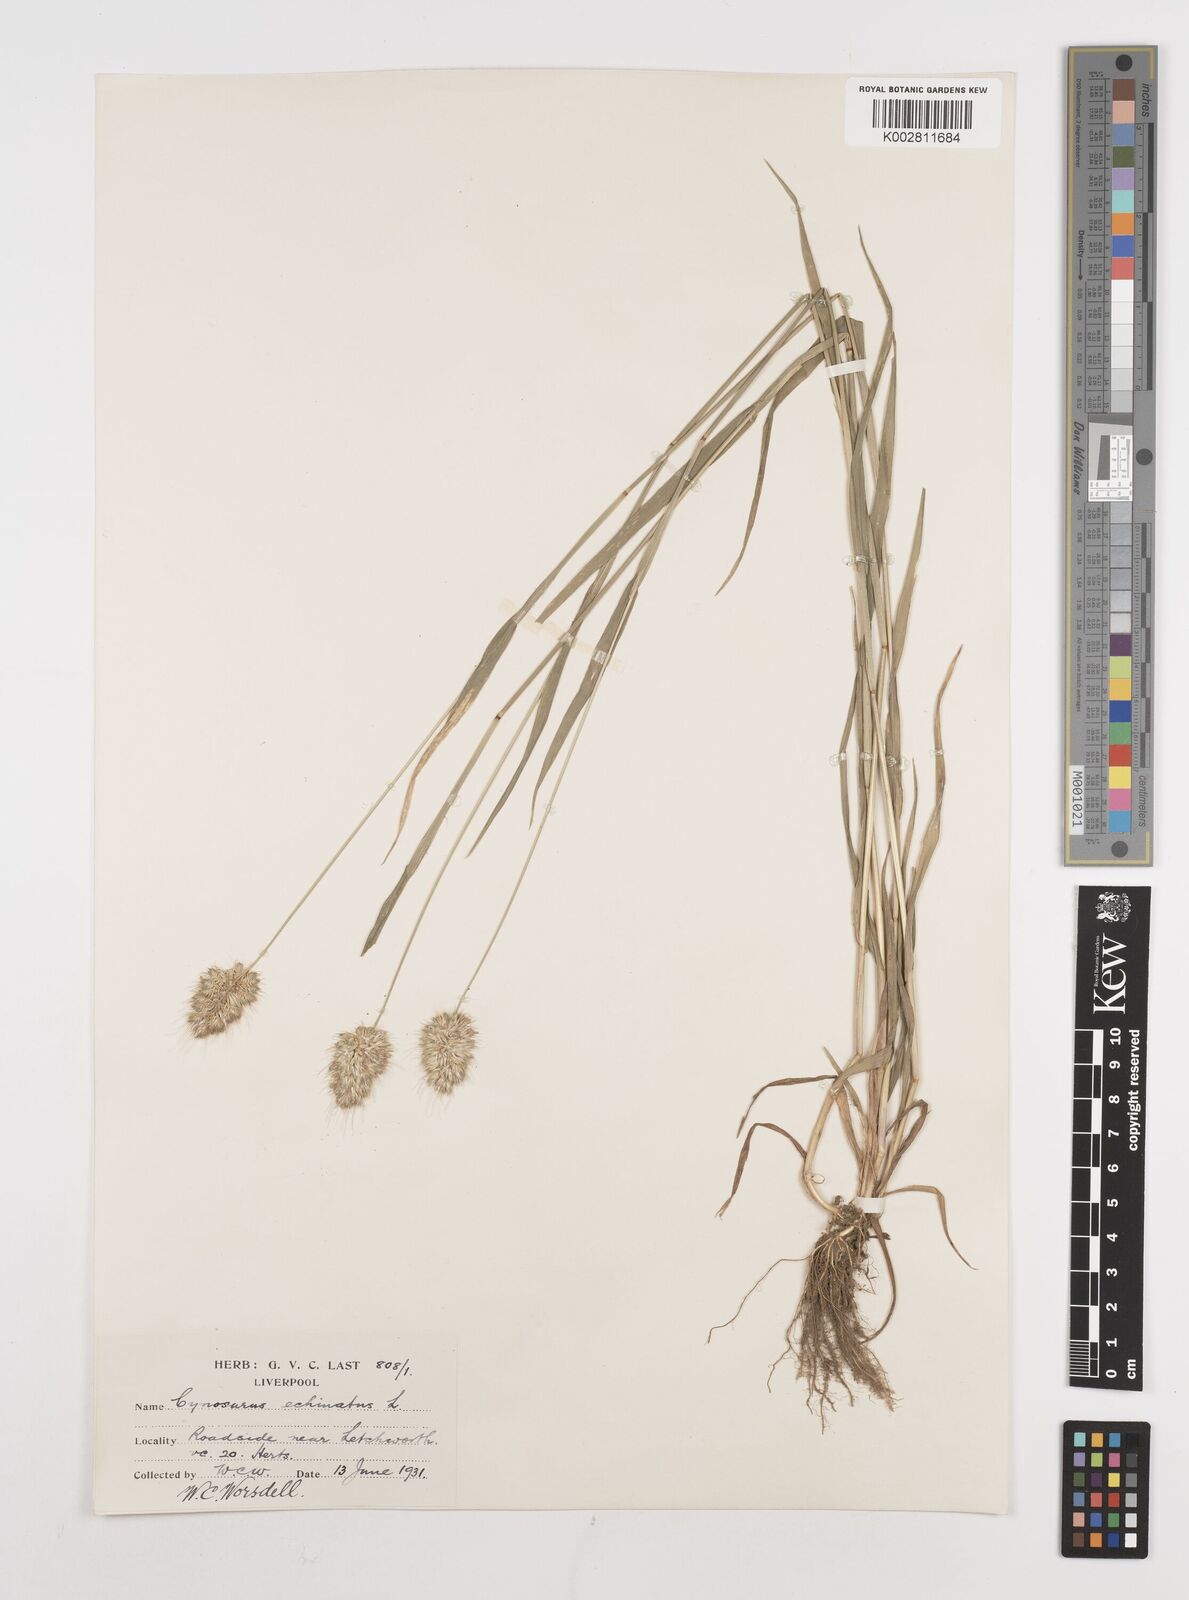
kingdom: Plantae
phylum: Tracheophyta
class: Liliopsida
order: Poales
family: Poaceae
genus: Cynosurus
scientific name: Cynosurus echinatus
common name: Rough dog's-tail
